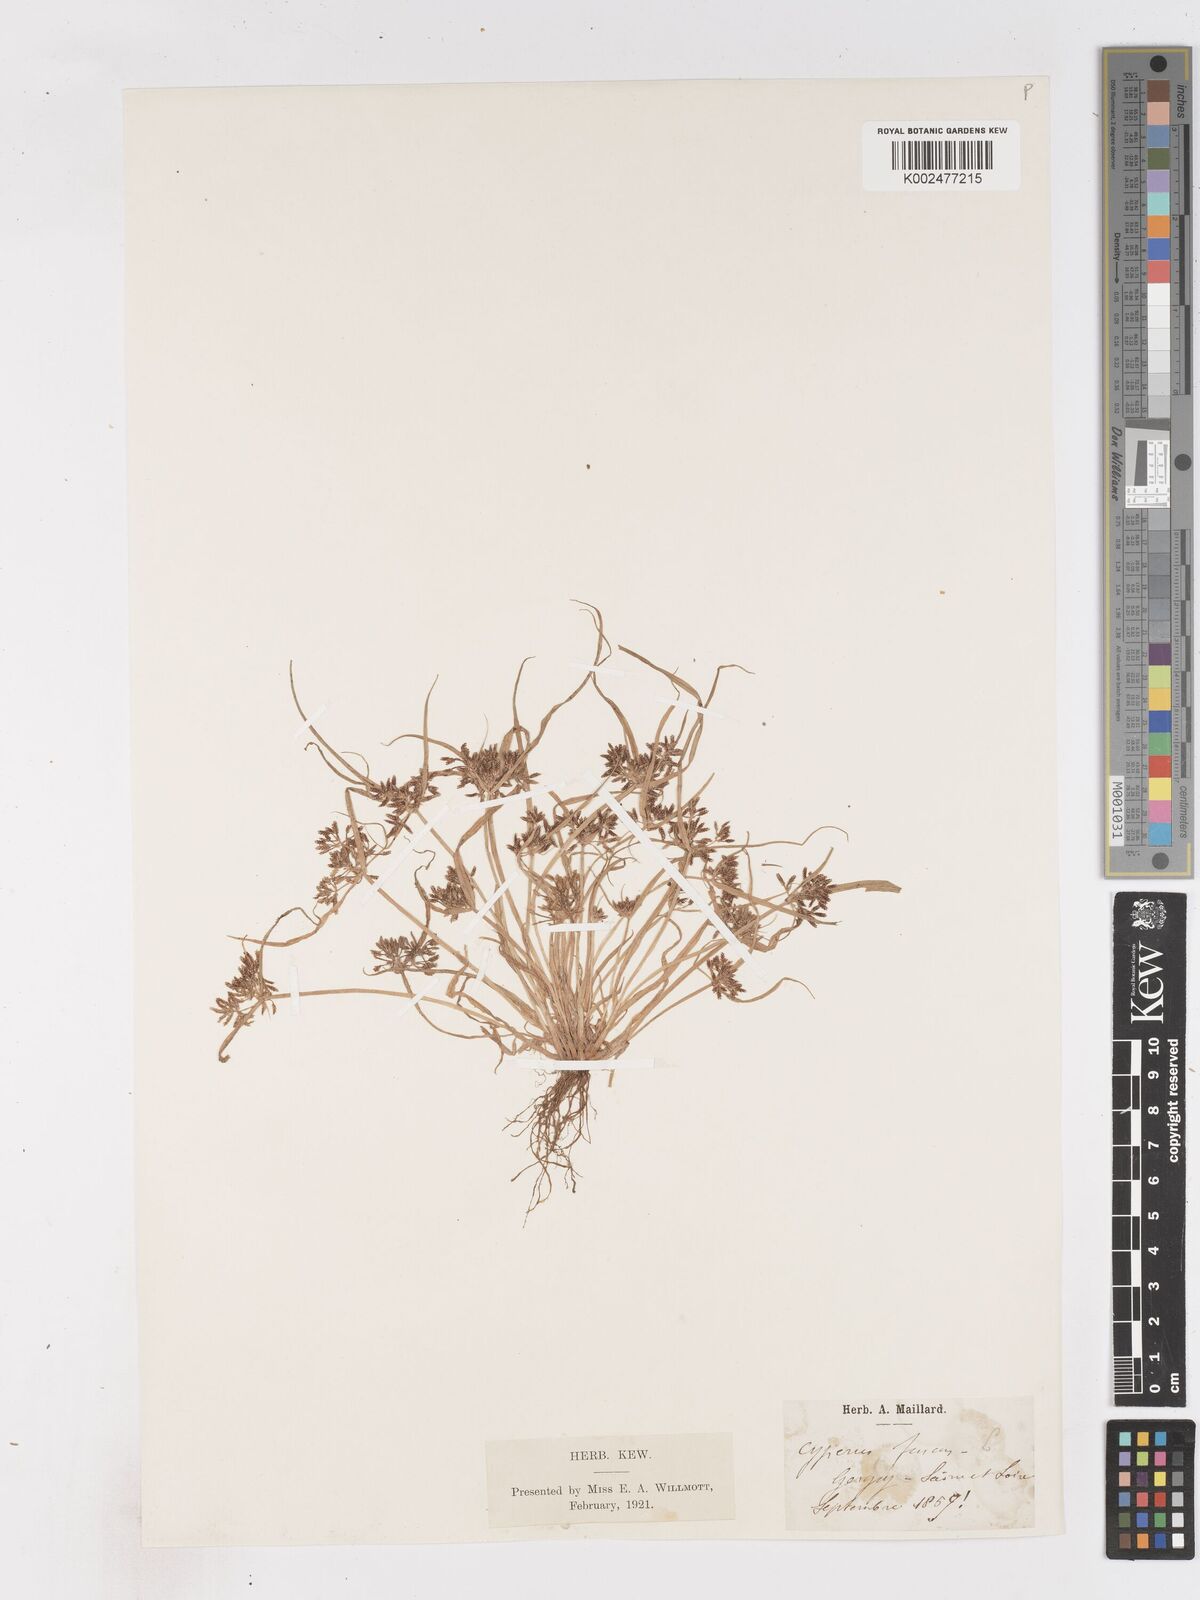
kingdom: Plantae
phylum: Tracheophyta
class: Liliopsida
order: Poales
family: Cyperaceae
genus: Cyperus
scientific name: Cyperus fuscus
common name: Brown galingale
